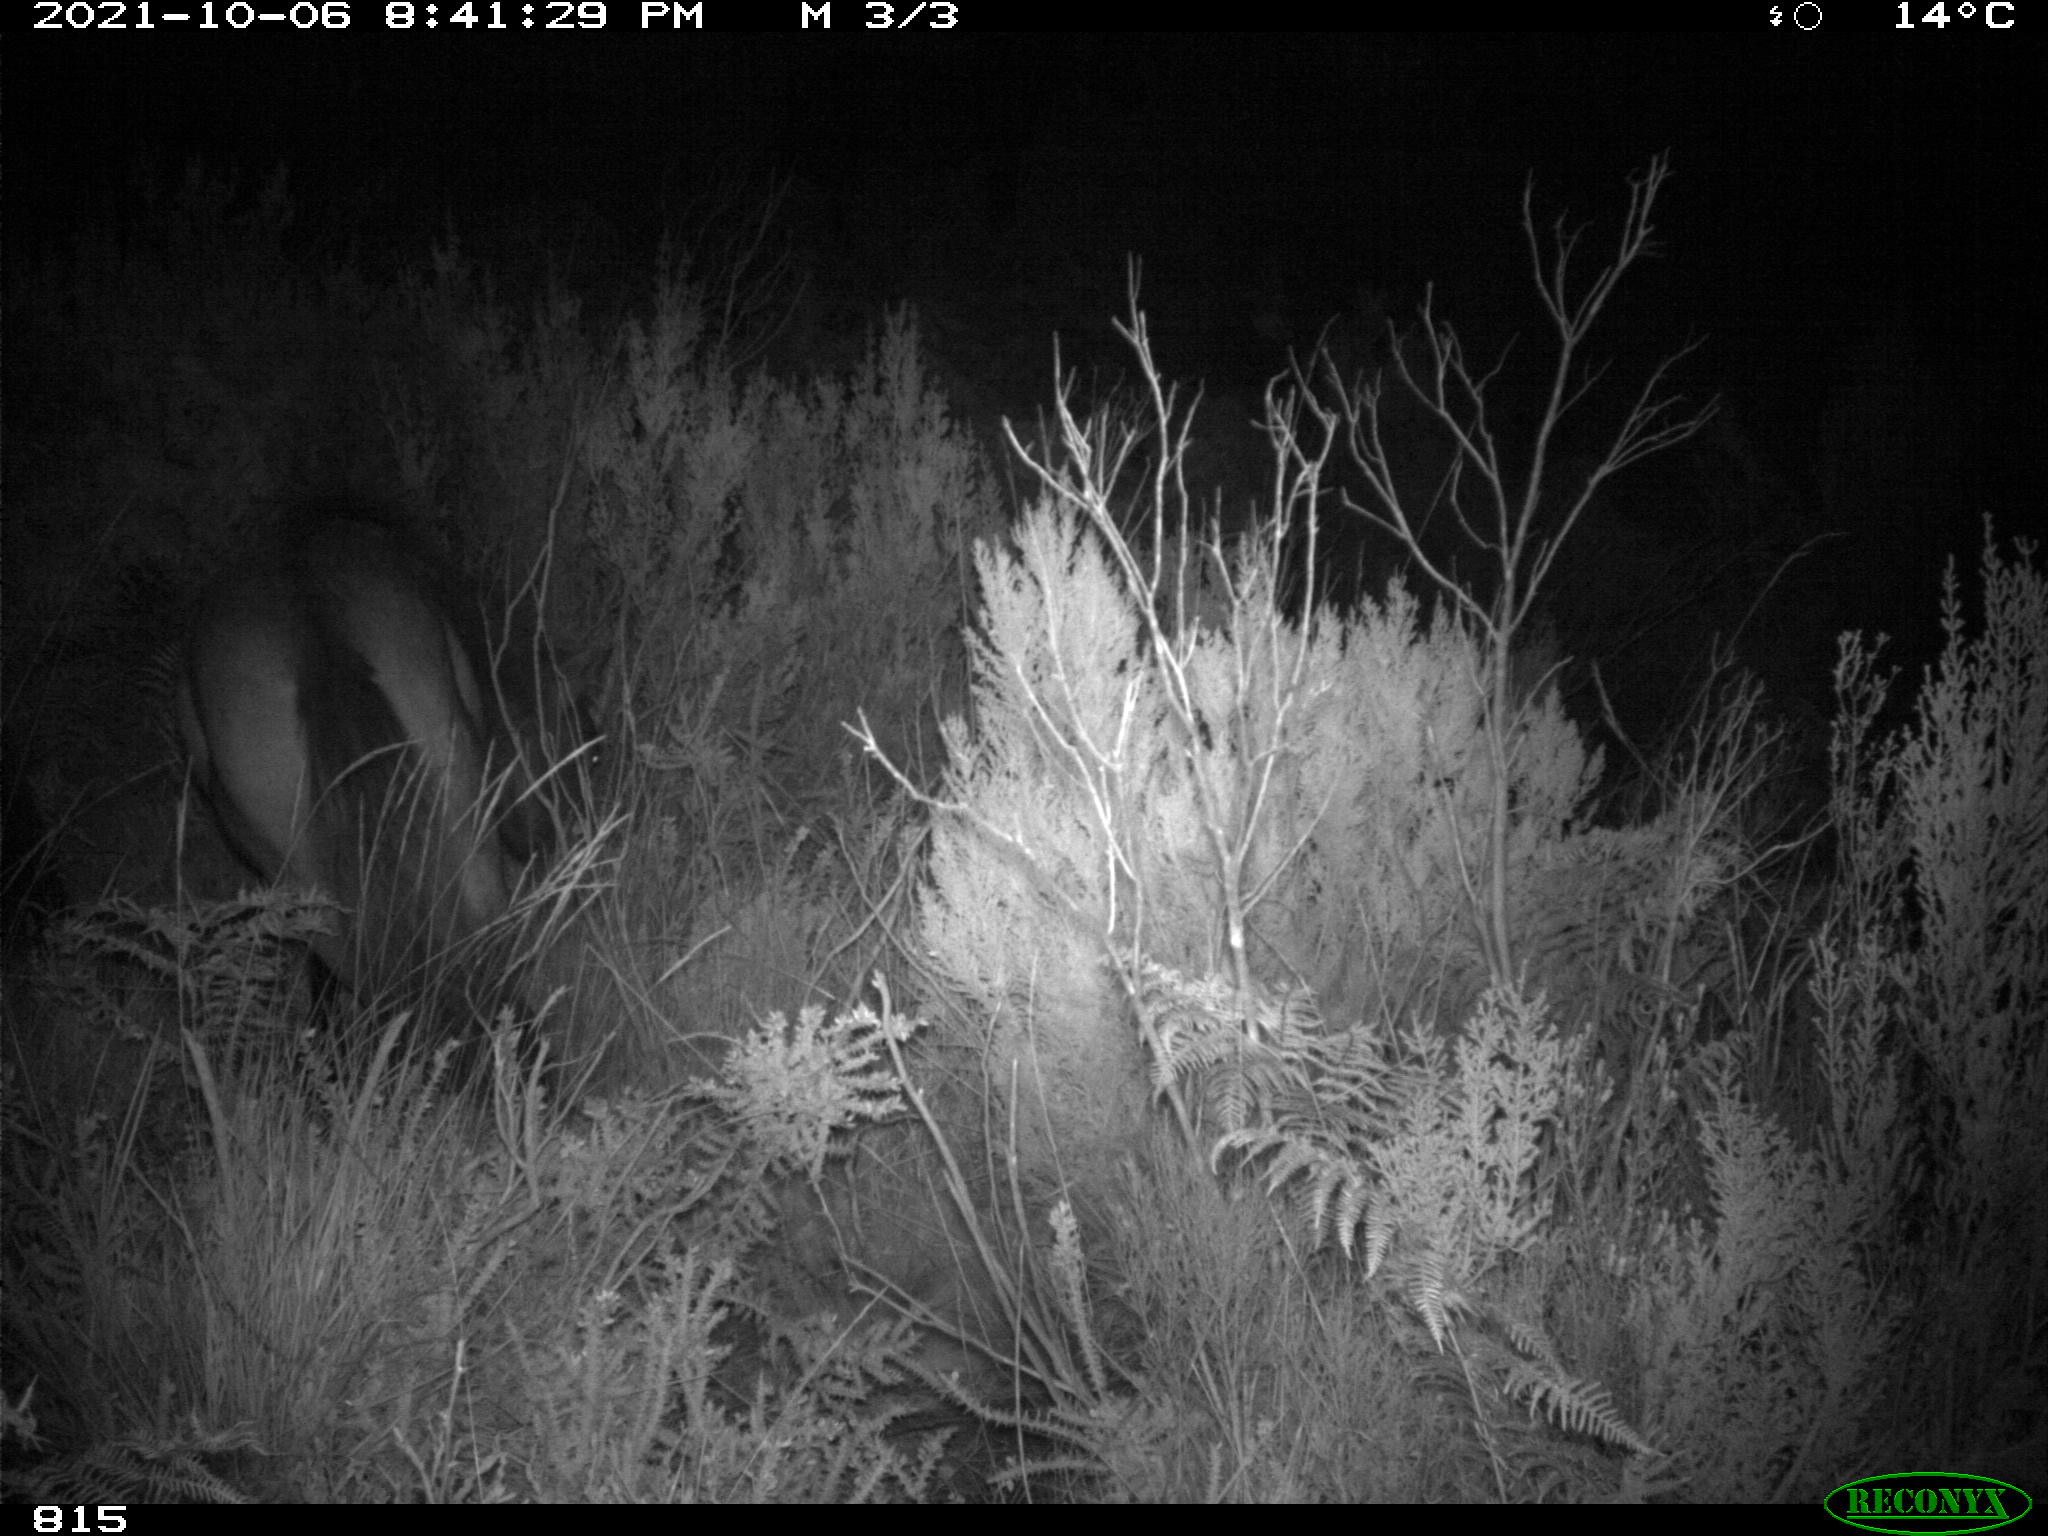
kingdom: Animalia
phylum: Chordata
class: Mammalia
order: Perissodactyla
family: Equidae
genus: Equus
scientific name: Equus caballus
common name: Horse
